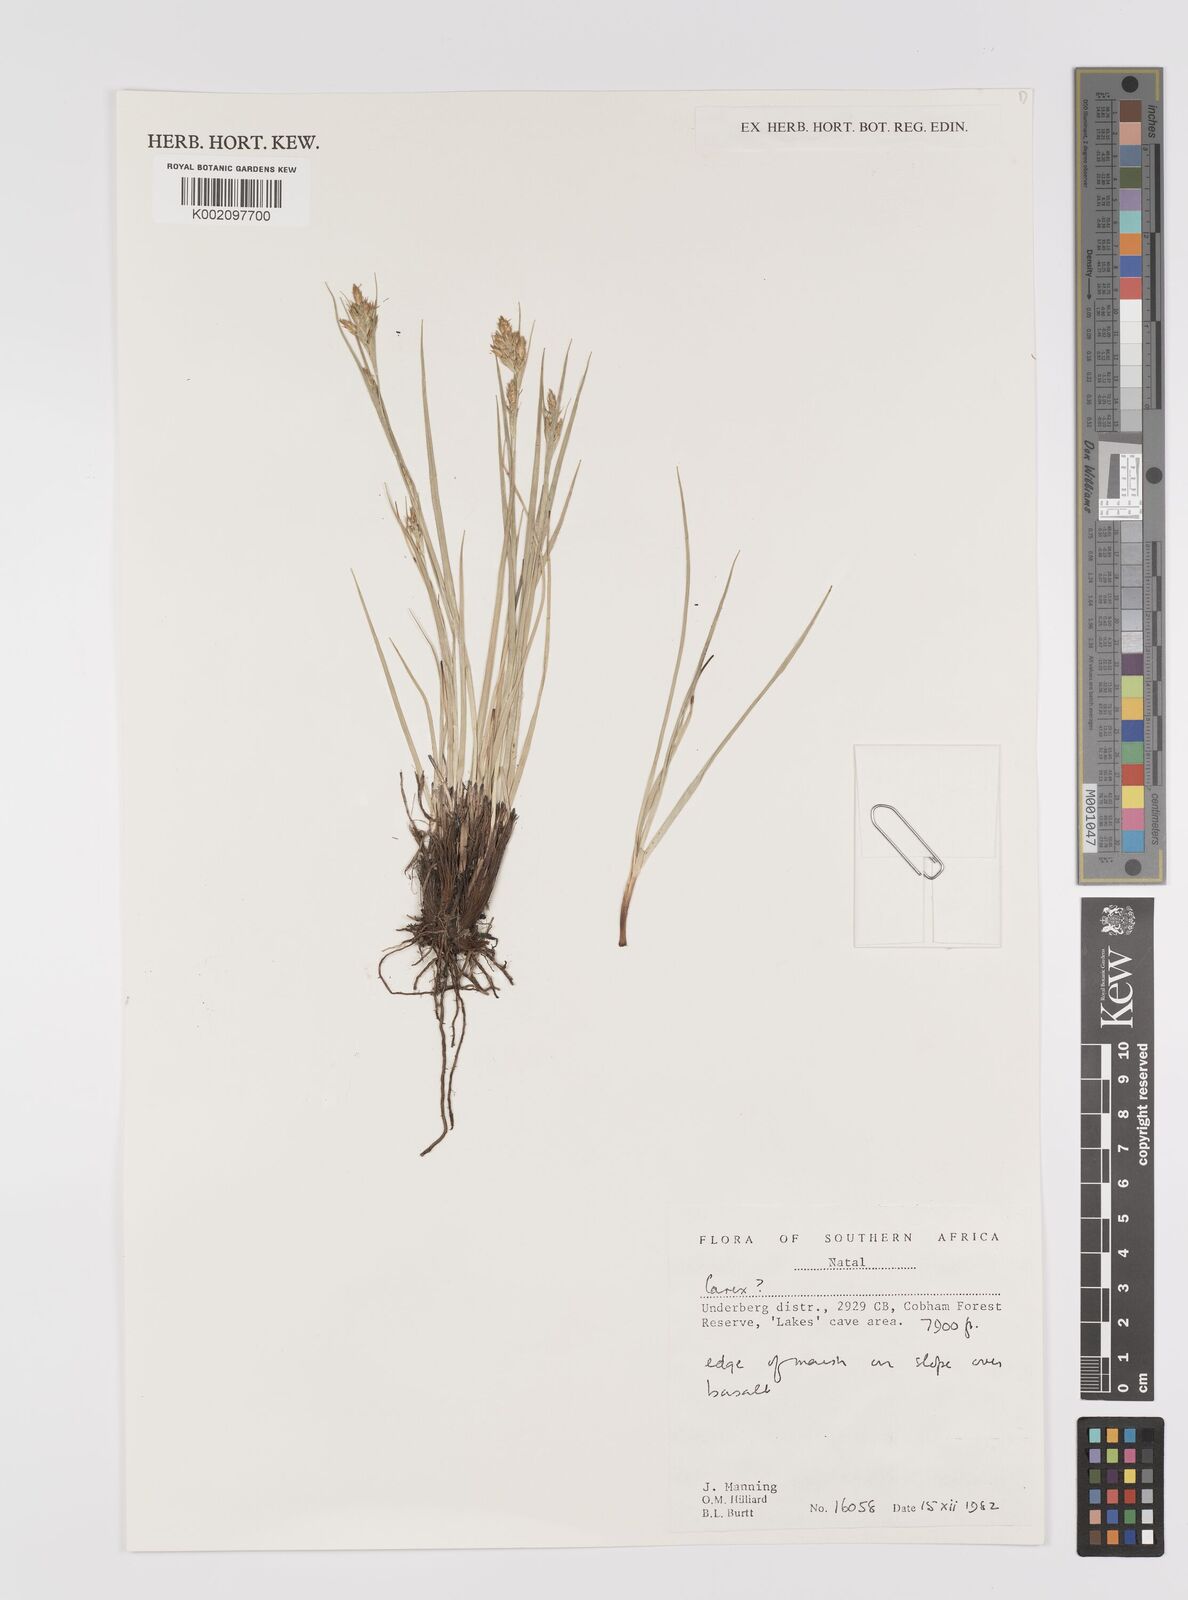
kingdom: Plantae
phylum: Tracheophyta
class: Liliopsida
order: Poales
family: Cyperaceae
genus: Carex
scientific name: Carex
